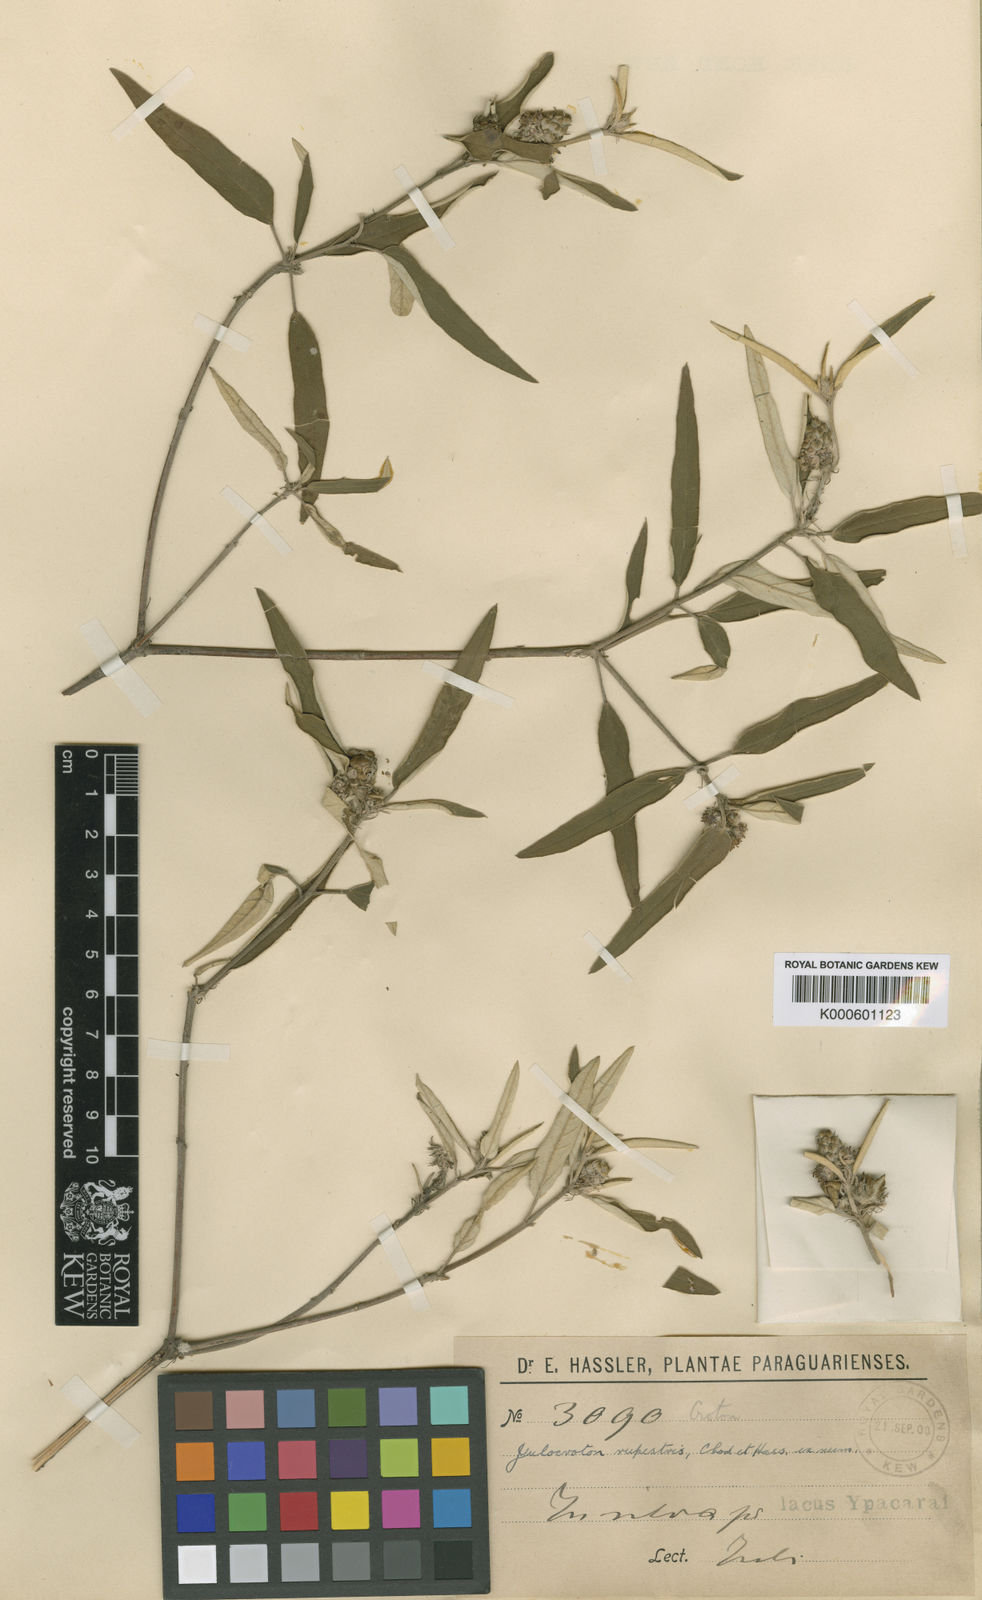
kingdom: Plantae
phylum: Tracheophyta
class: Magnoliopsida
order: Malpighiales
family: Euphorbiaceae
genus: Croton
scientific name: Croton rupestris
